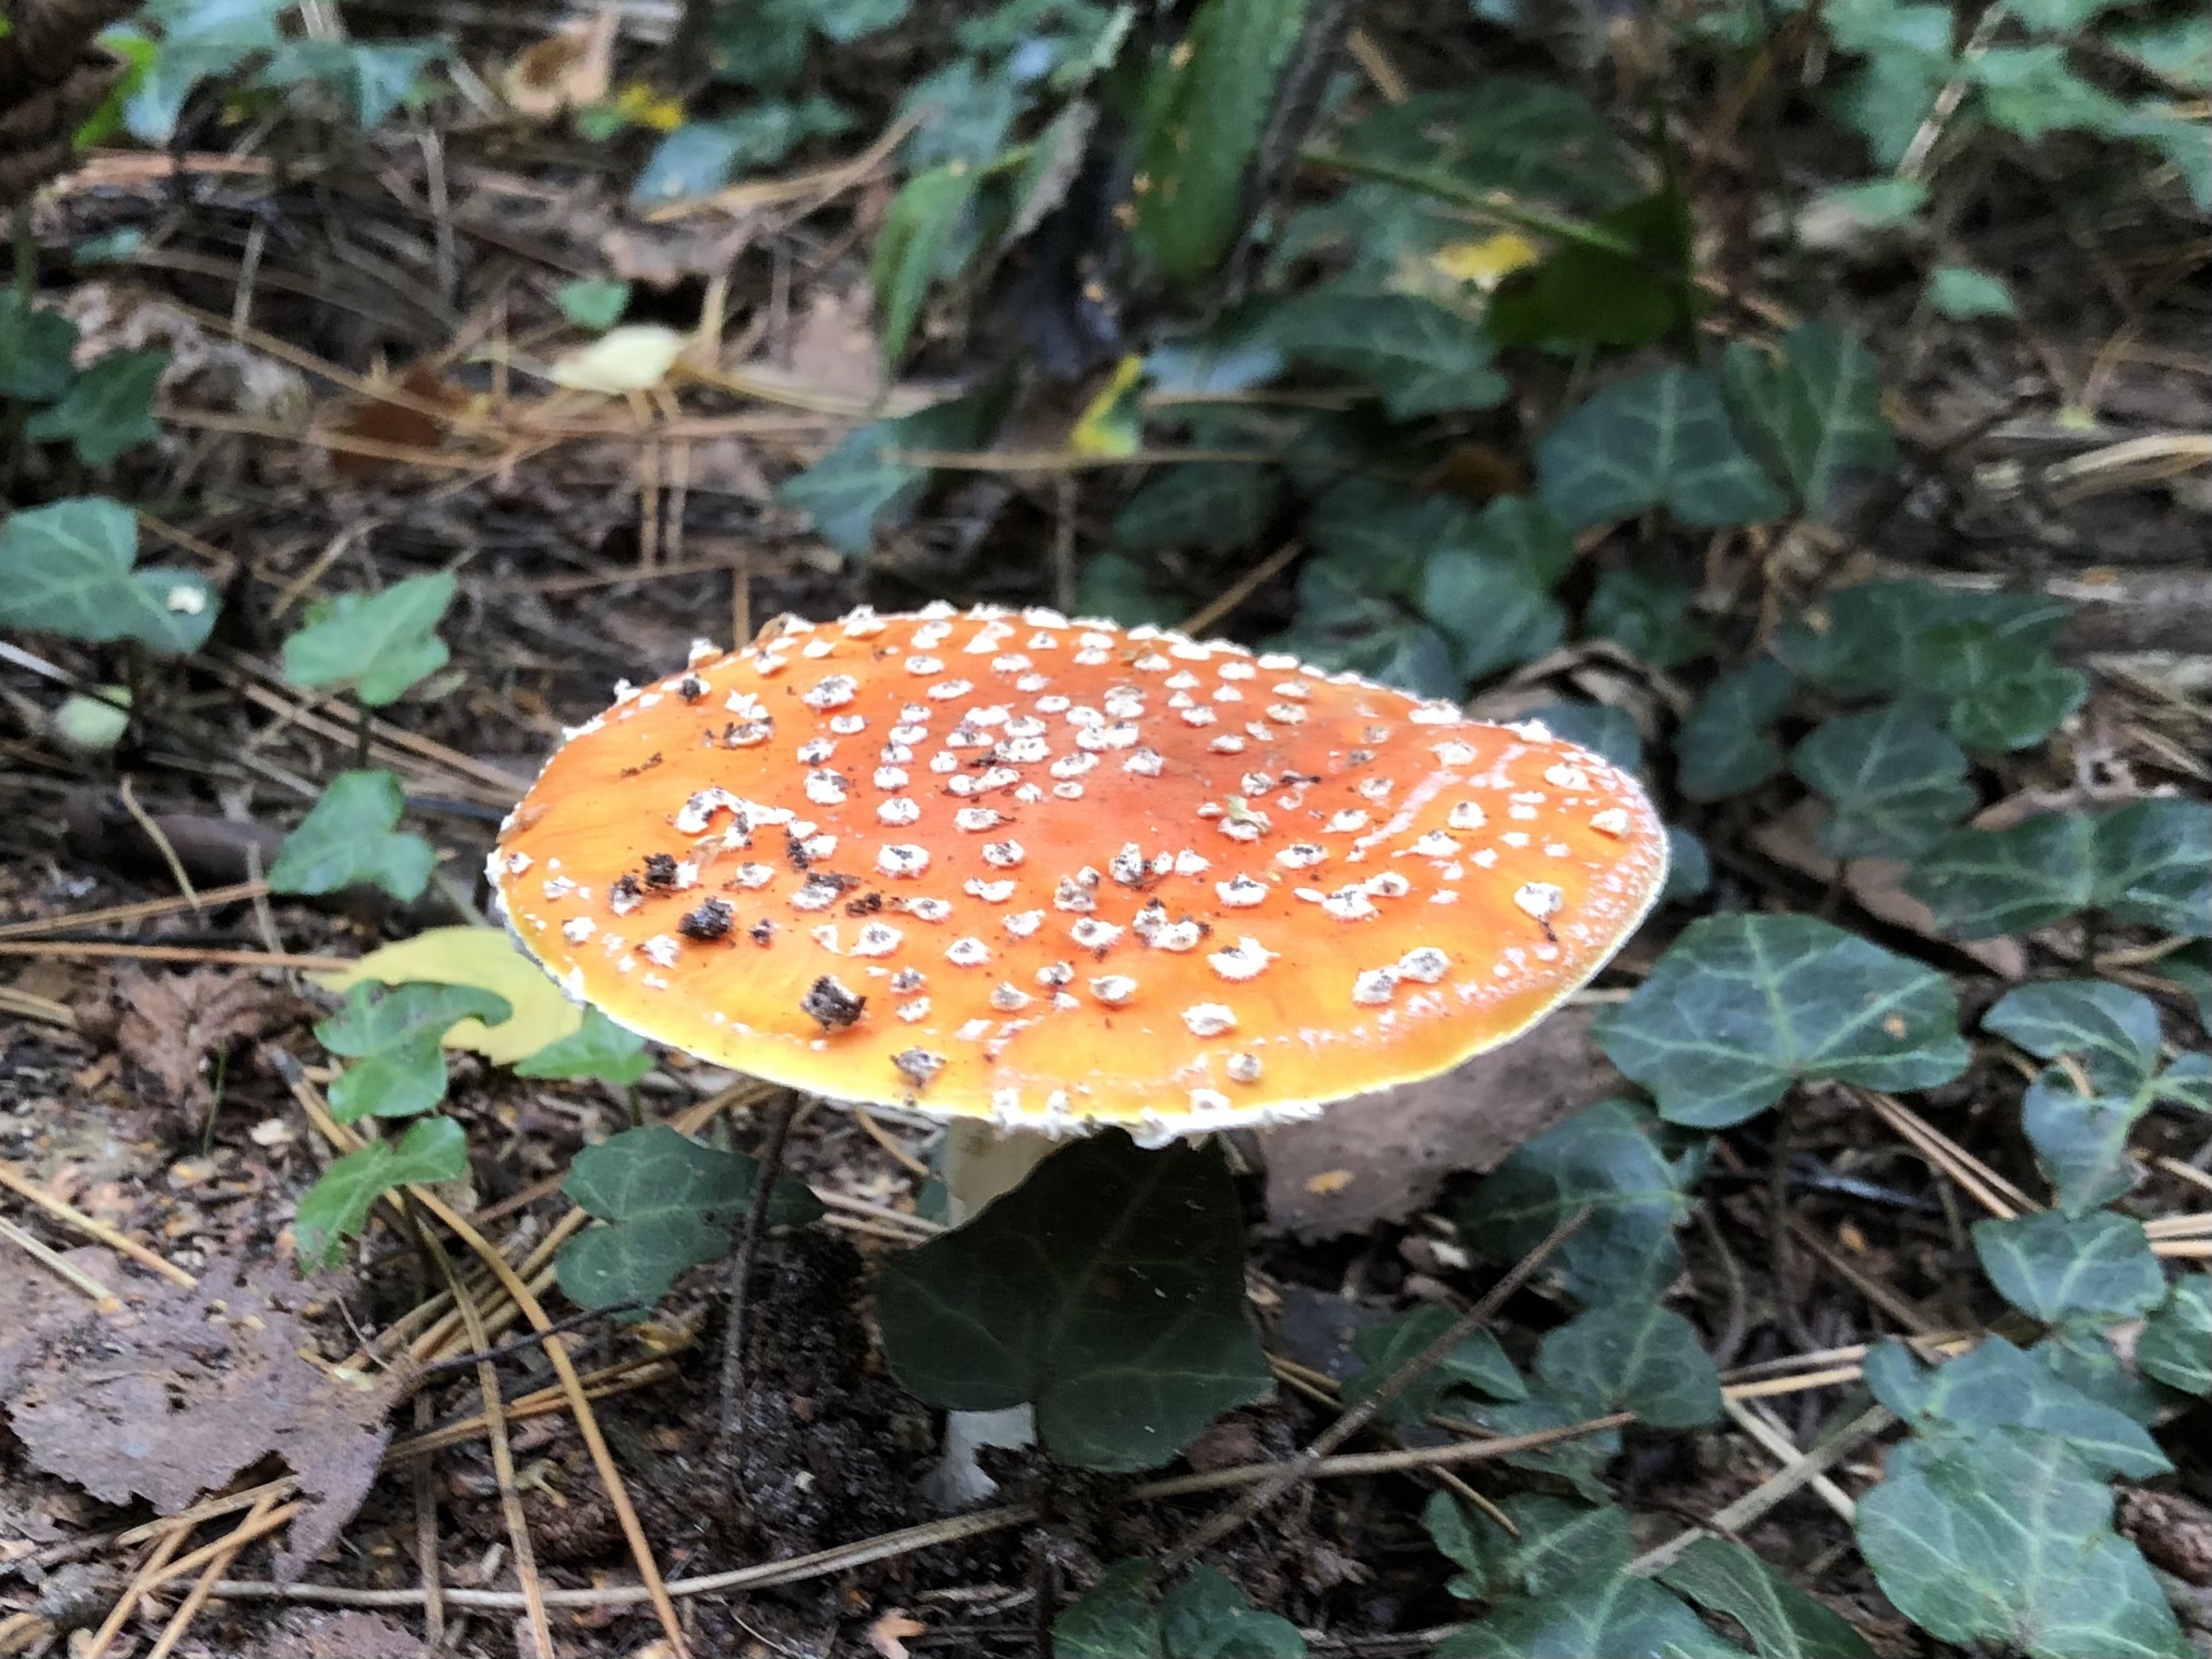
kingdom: Fungi
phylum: Basidiomycota
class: Agaricomycetes
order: Agaricales
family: Amanitaceae
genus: Amanita
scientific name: Amanita muscaria
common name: Rød fluesvamp
